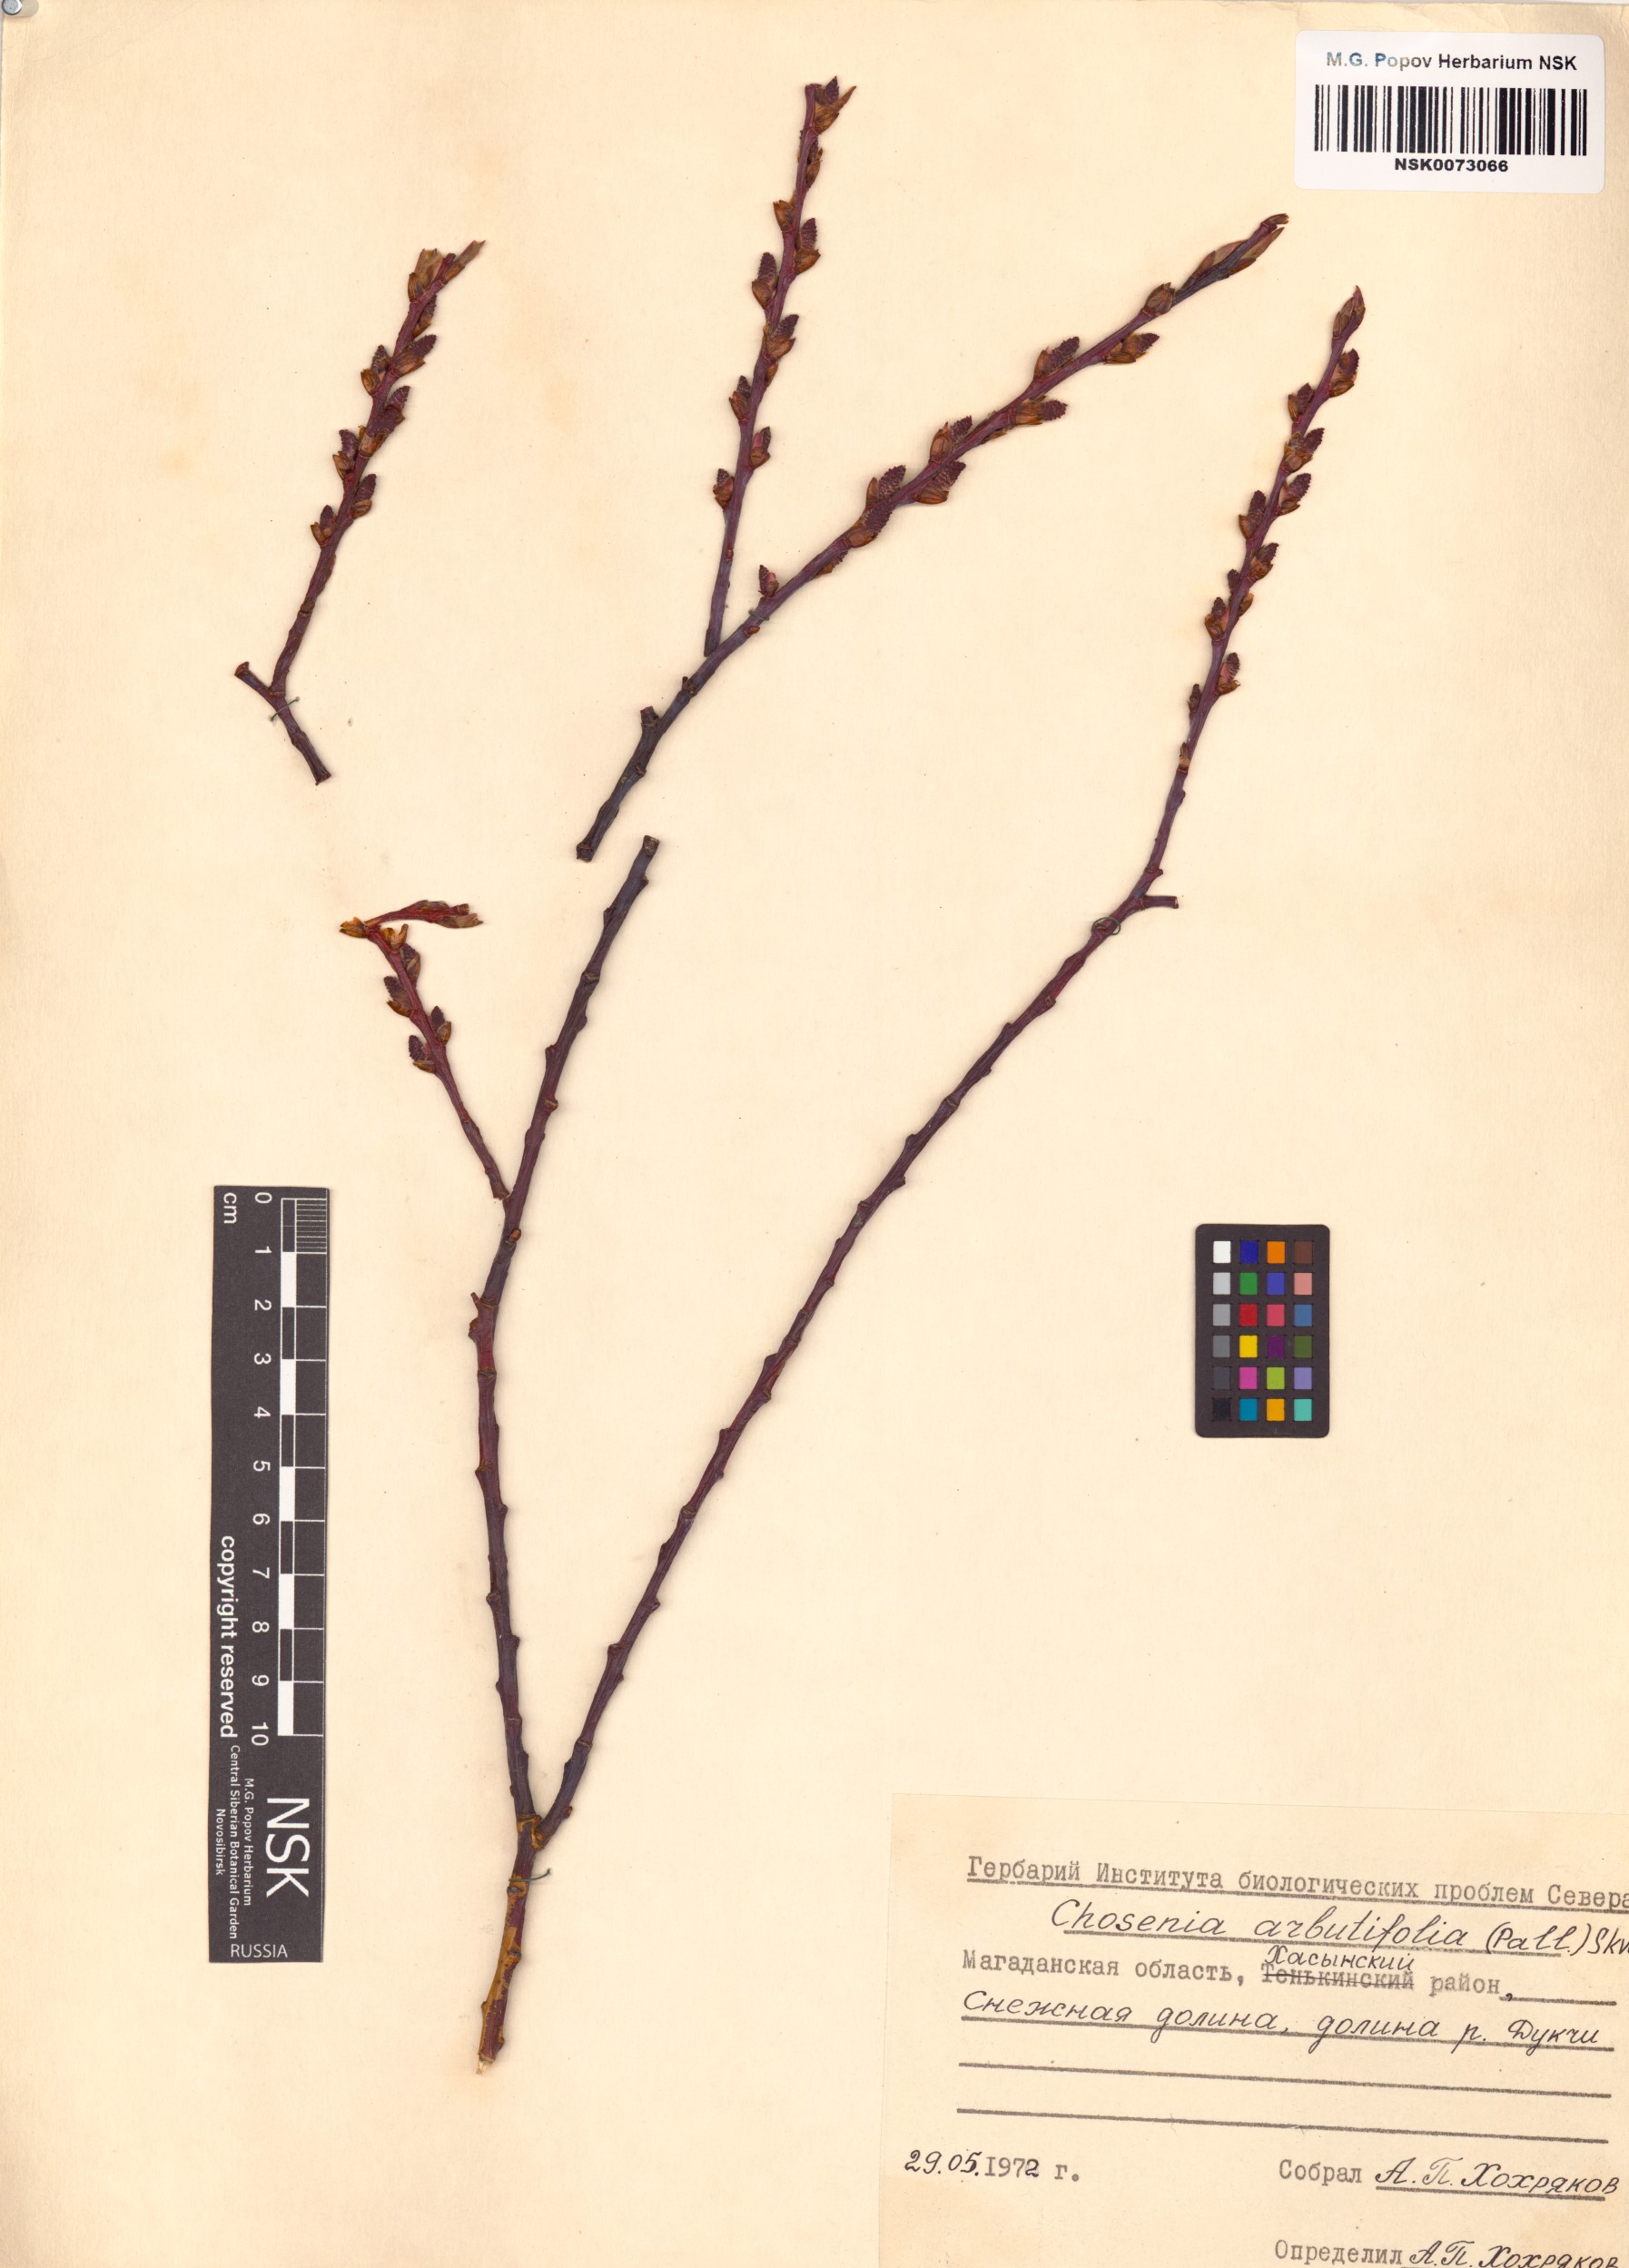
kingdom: Plantae
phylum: Tracheophyta
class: Magnoliopsida
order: Malpighiales
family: Salicaceae
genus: Chosenia
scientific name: Chosenia arbutifolia
